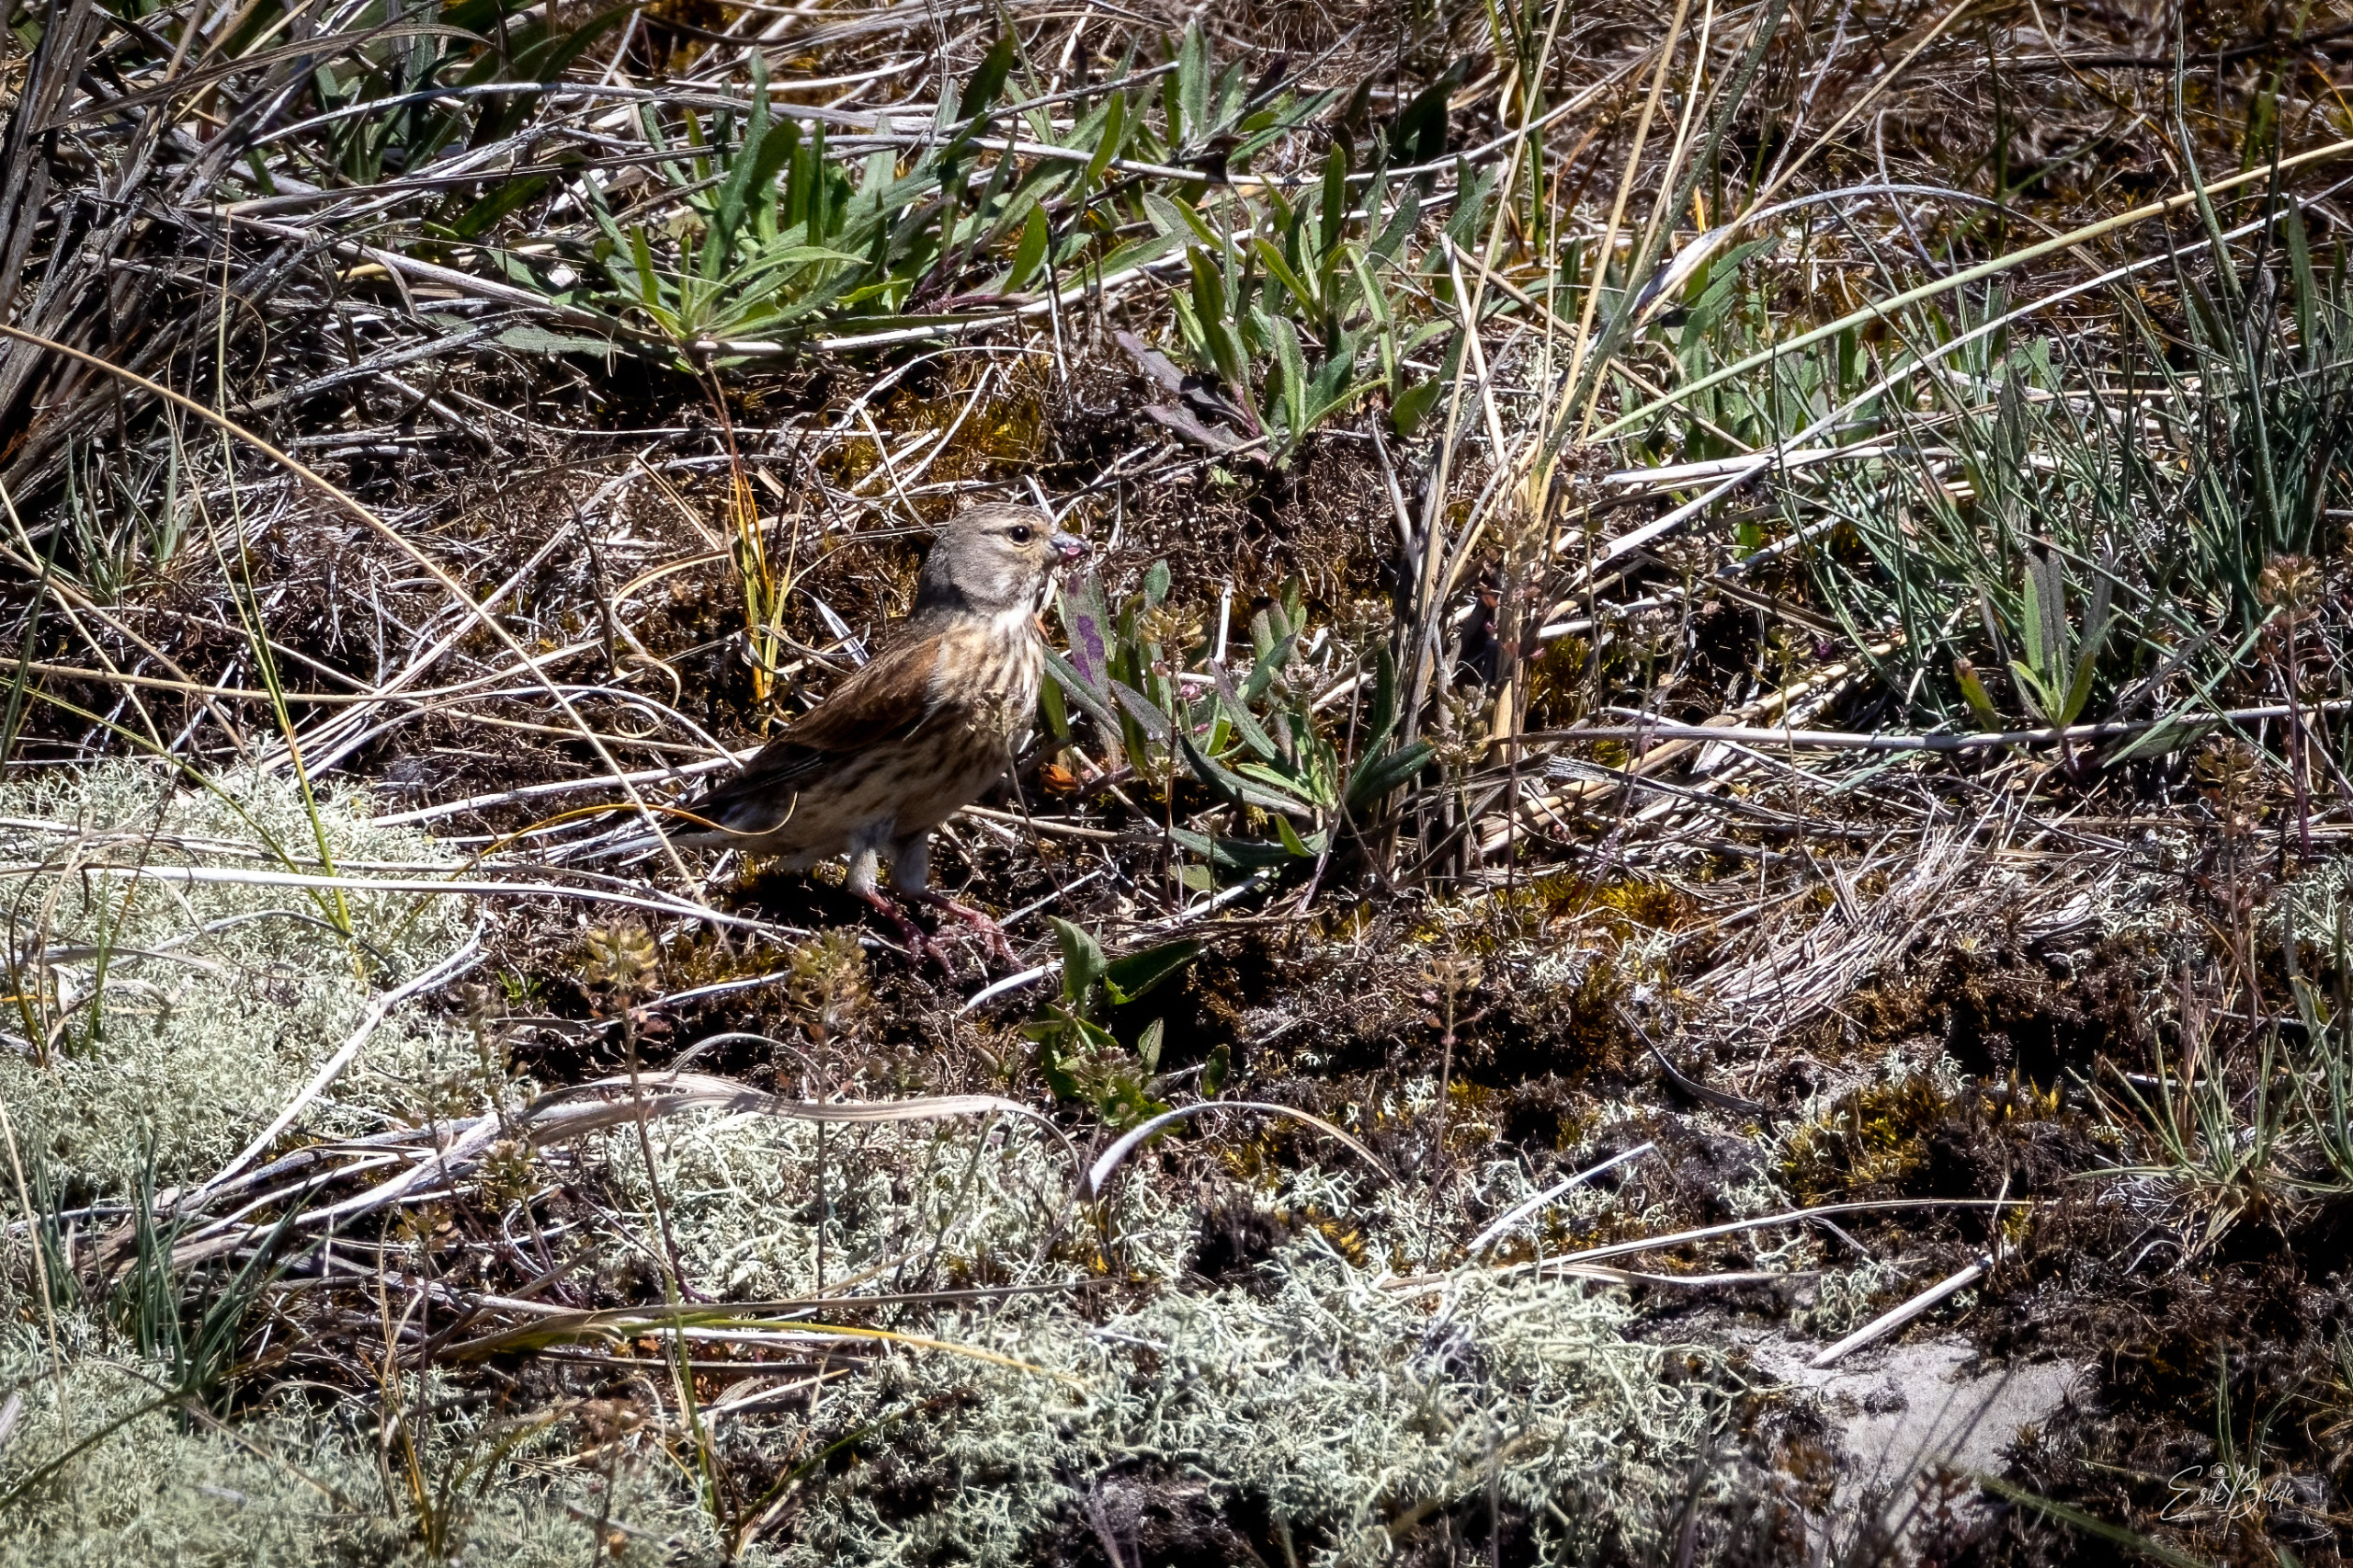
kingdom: Animalia
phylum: Chordata
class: Aves
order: Passeriformes
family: Fringillidae
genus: Linaria
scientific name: Linaria cannabina
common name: Tornirisk
